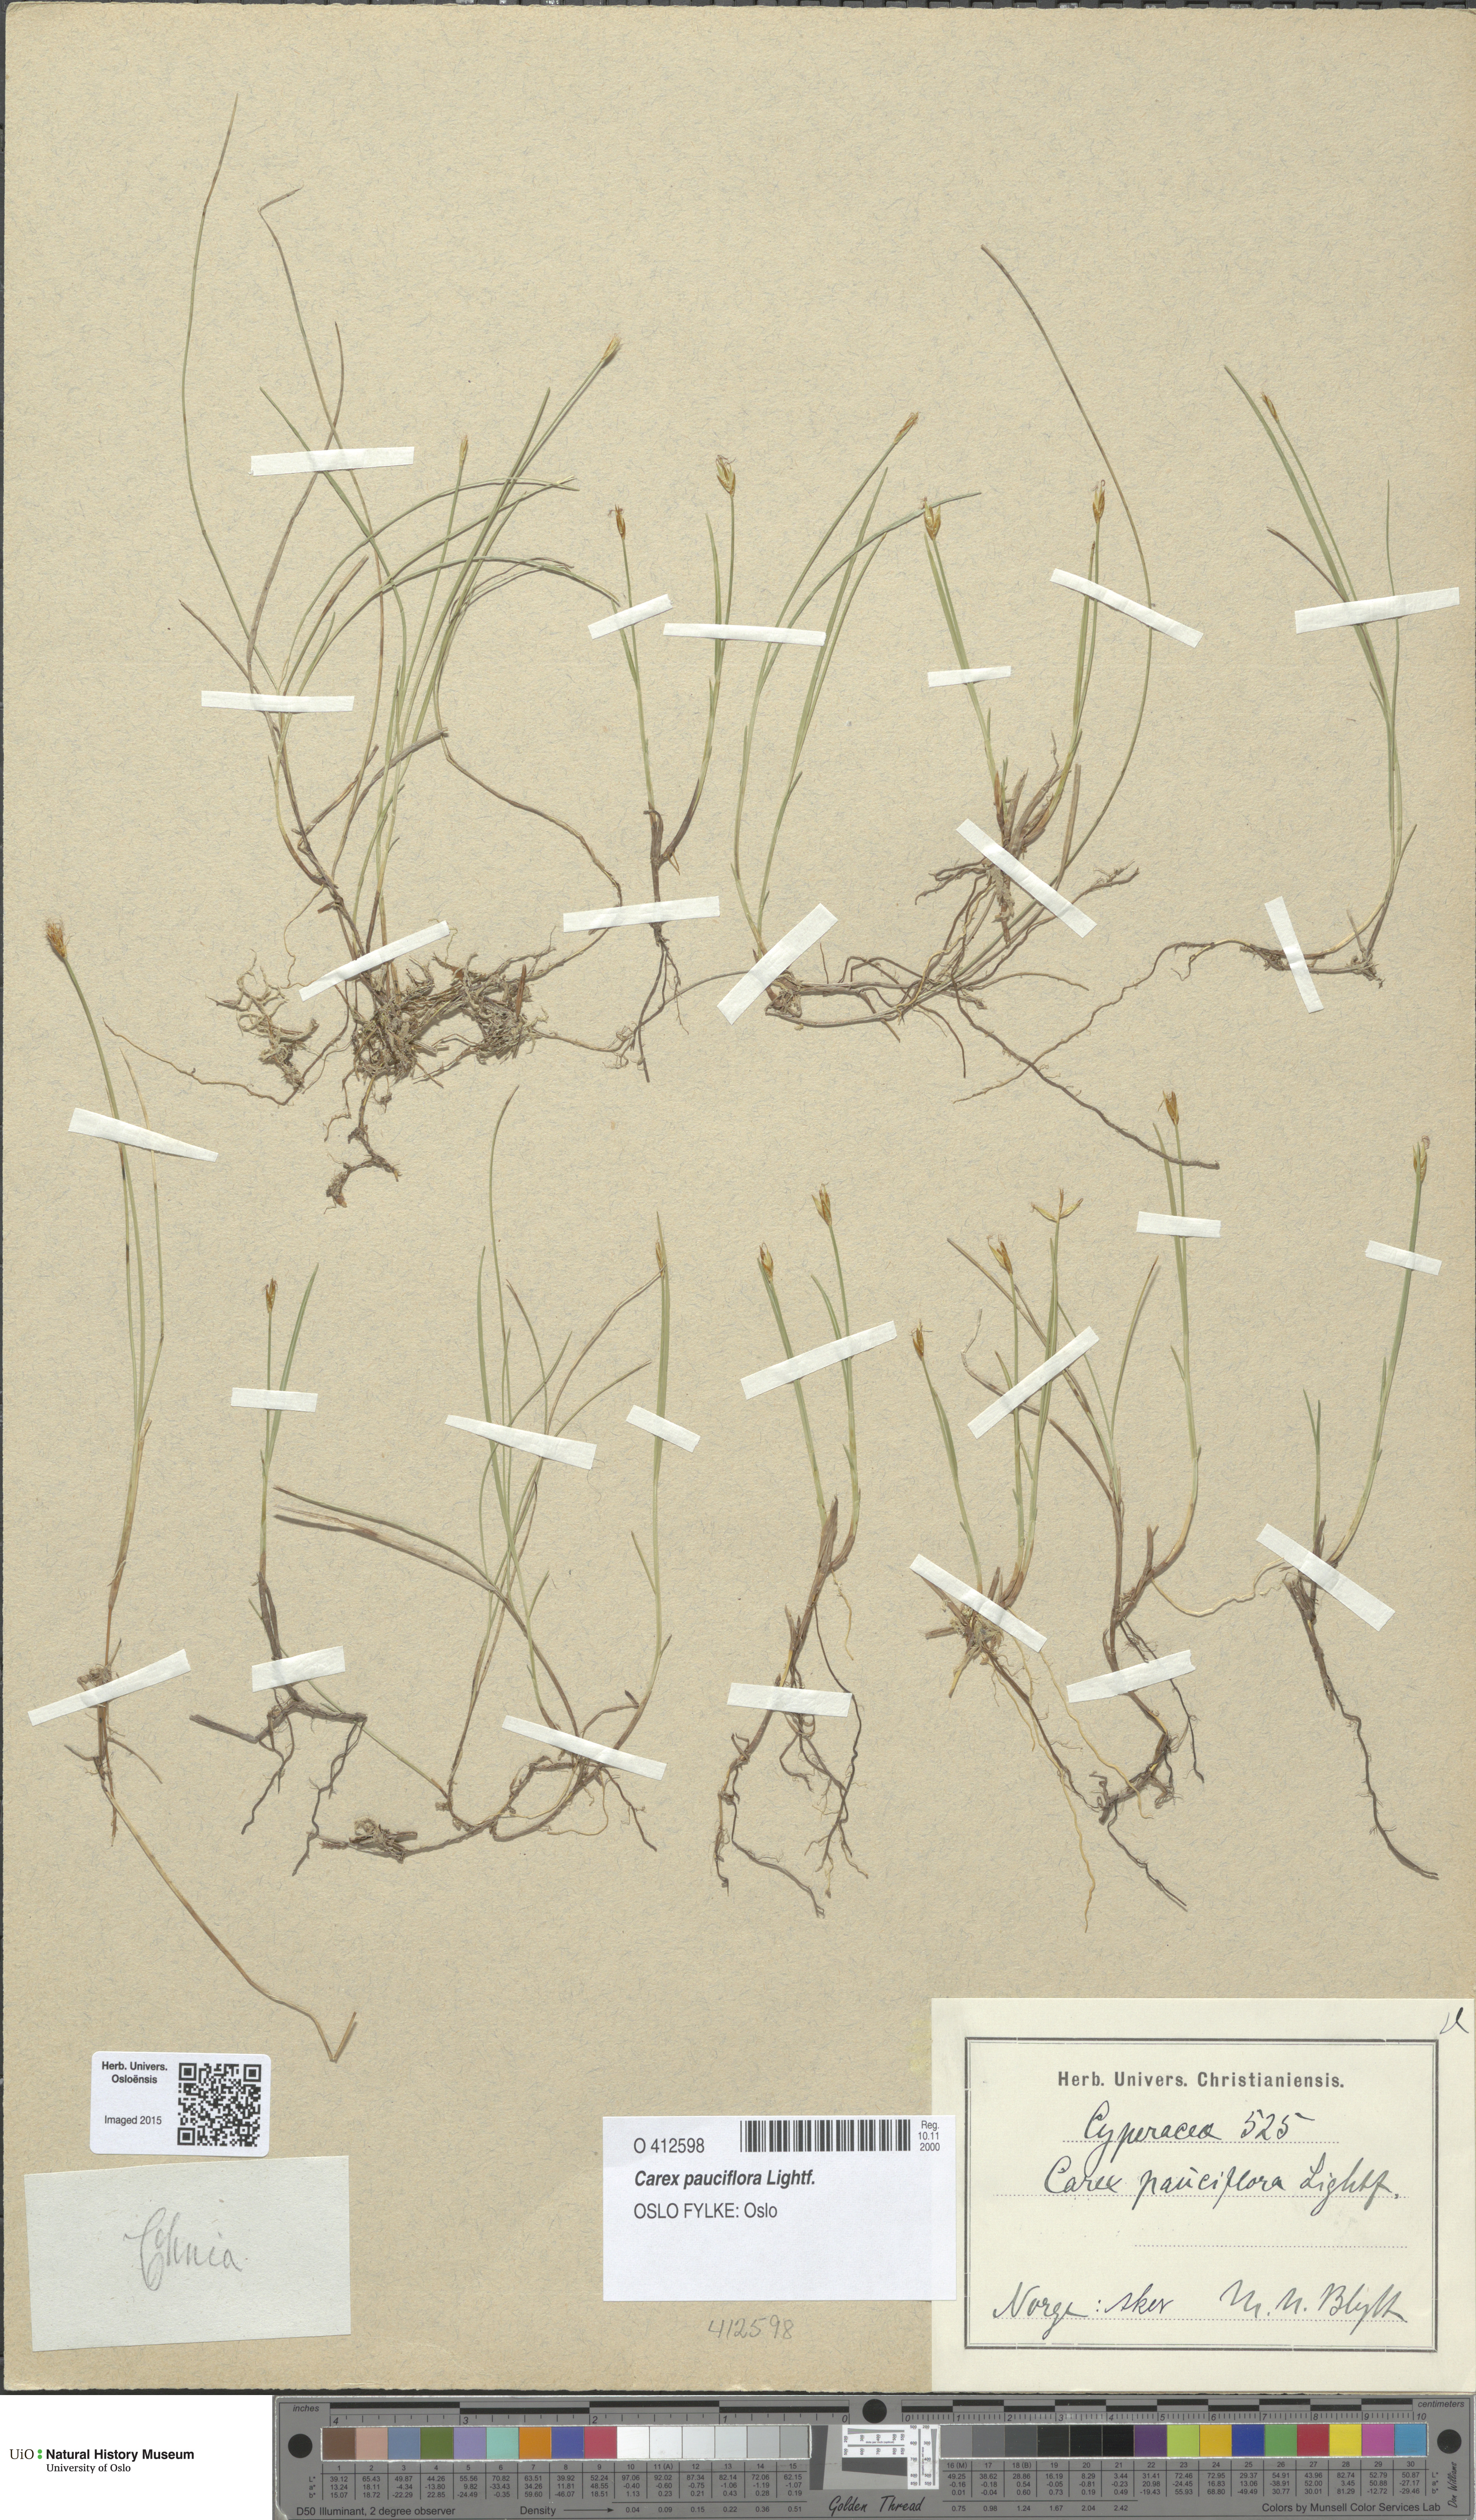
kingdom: Plantae
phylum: Tracheophyta
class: Liliopsida
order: Poales
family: Cyperaceae
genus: Carex
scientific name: Carex pauciflora
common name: Few-flowered sedge
